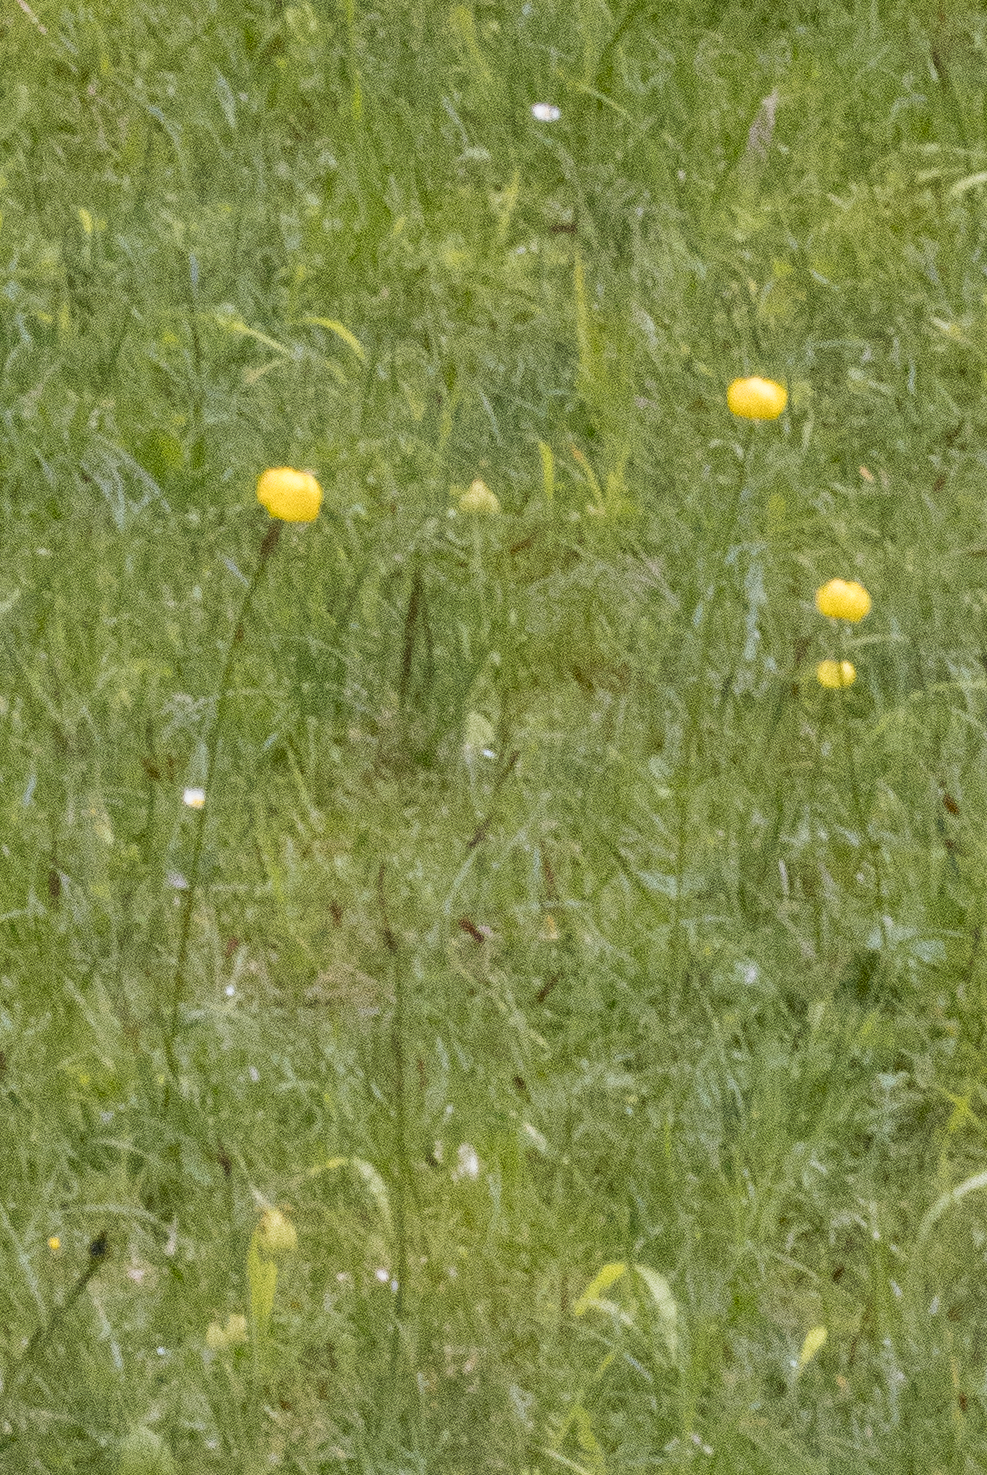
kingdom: Plantae
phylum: Tracheophyta
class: Magnoliopsida
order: Ranunculales
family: Ranunculaceae
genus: Trollius
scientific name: Trollius europaeus
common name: Engblomme
